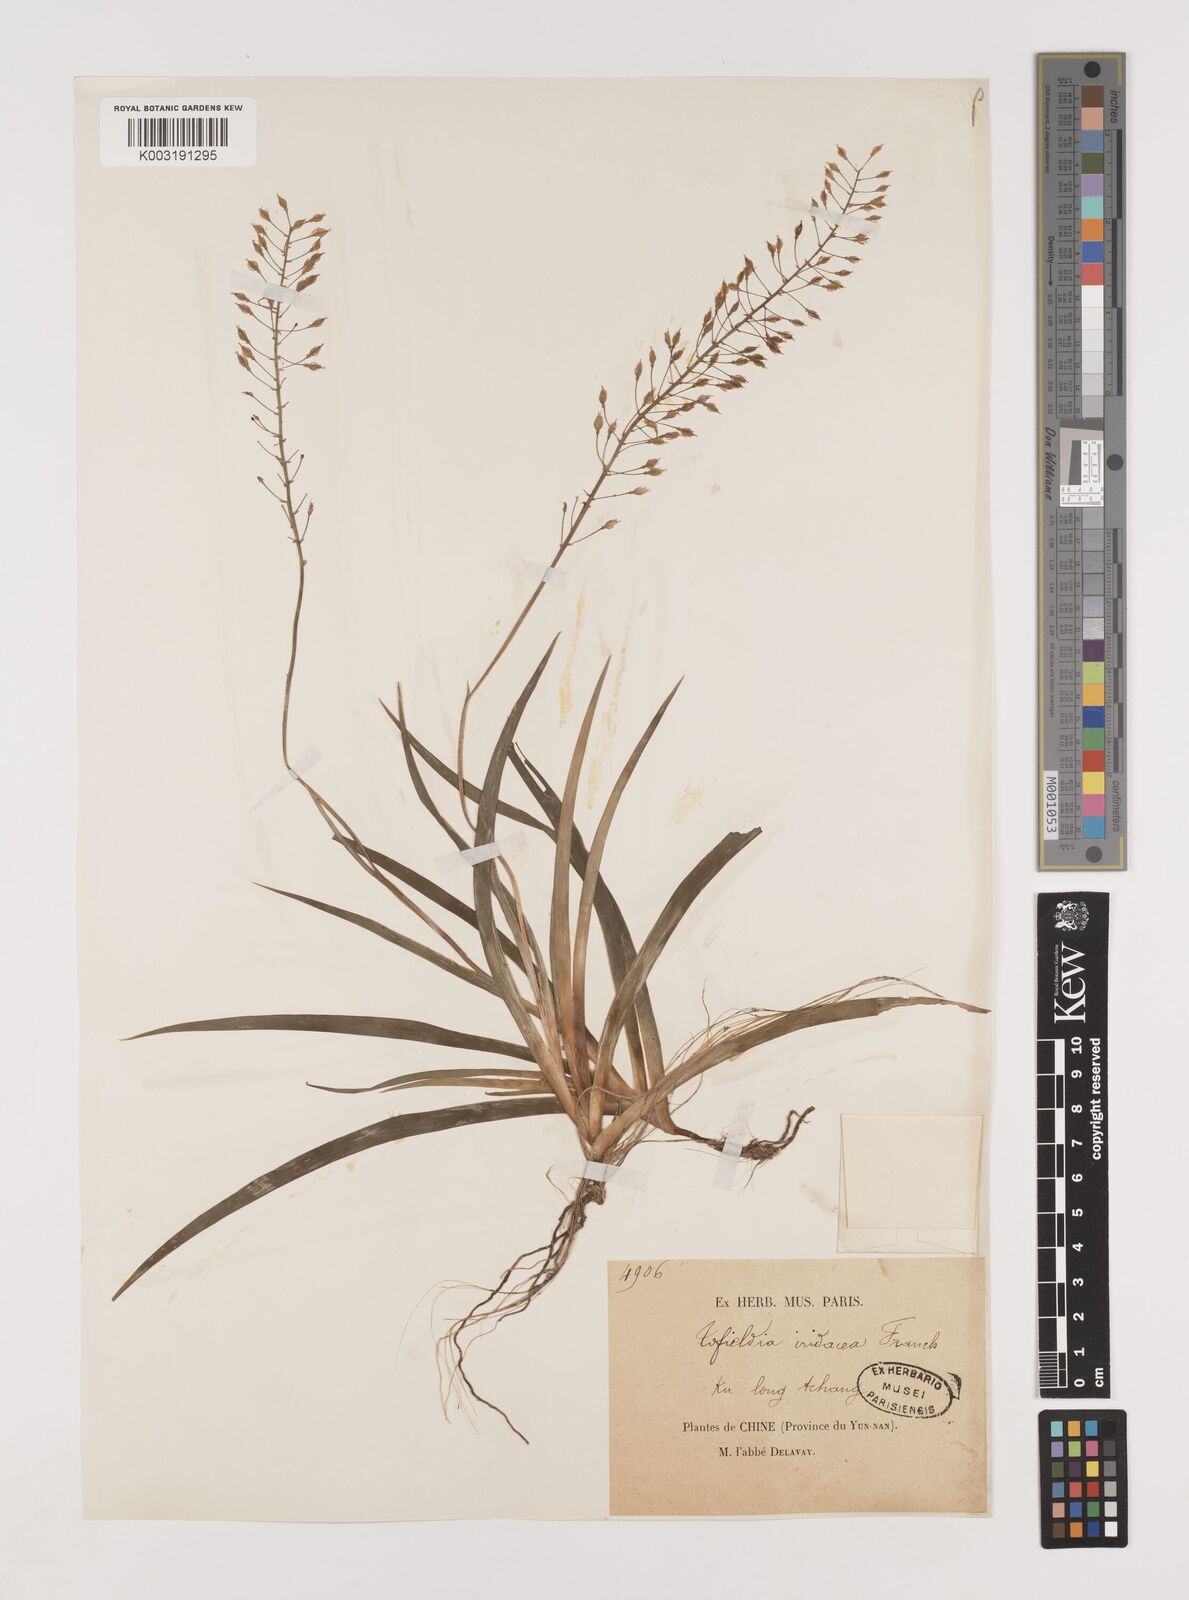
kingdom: Plantae
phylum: Tracheophyta
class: Liliopsida
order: Alismatales
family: Tofieldiaceae
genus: Tofieldia
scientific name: Tofieldia thibetica
